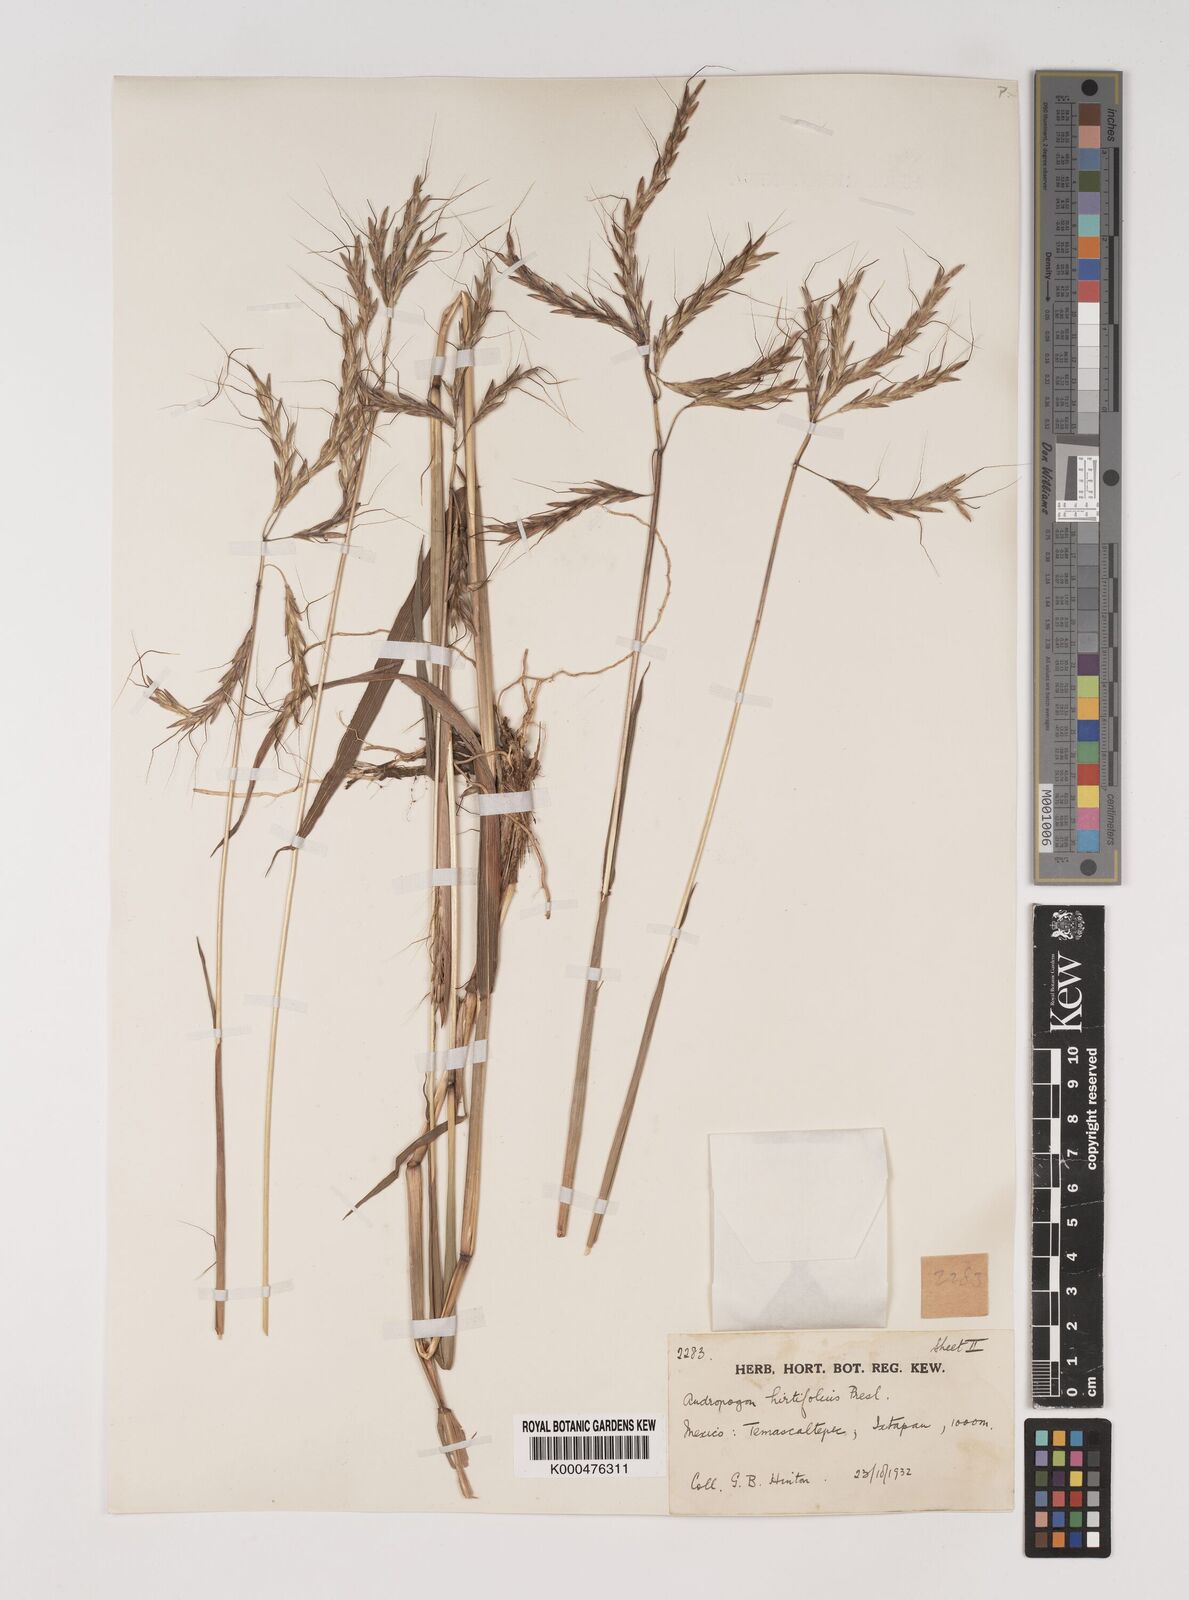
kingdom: Plantae
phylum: Tracheophyta
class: Liliopsida
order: Poales
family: Poaceae
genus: Bothriochloa
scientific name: Bothriochloa hirtifolia
